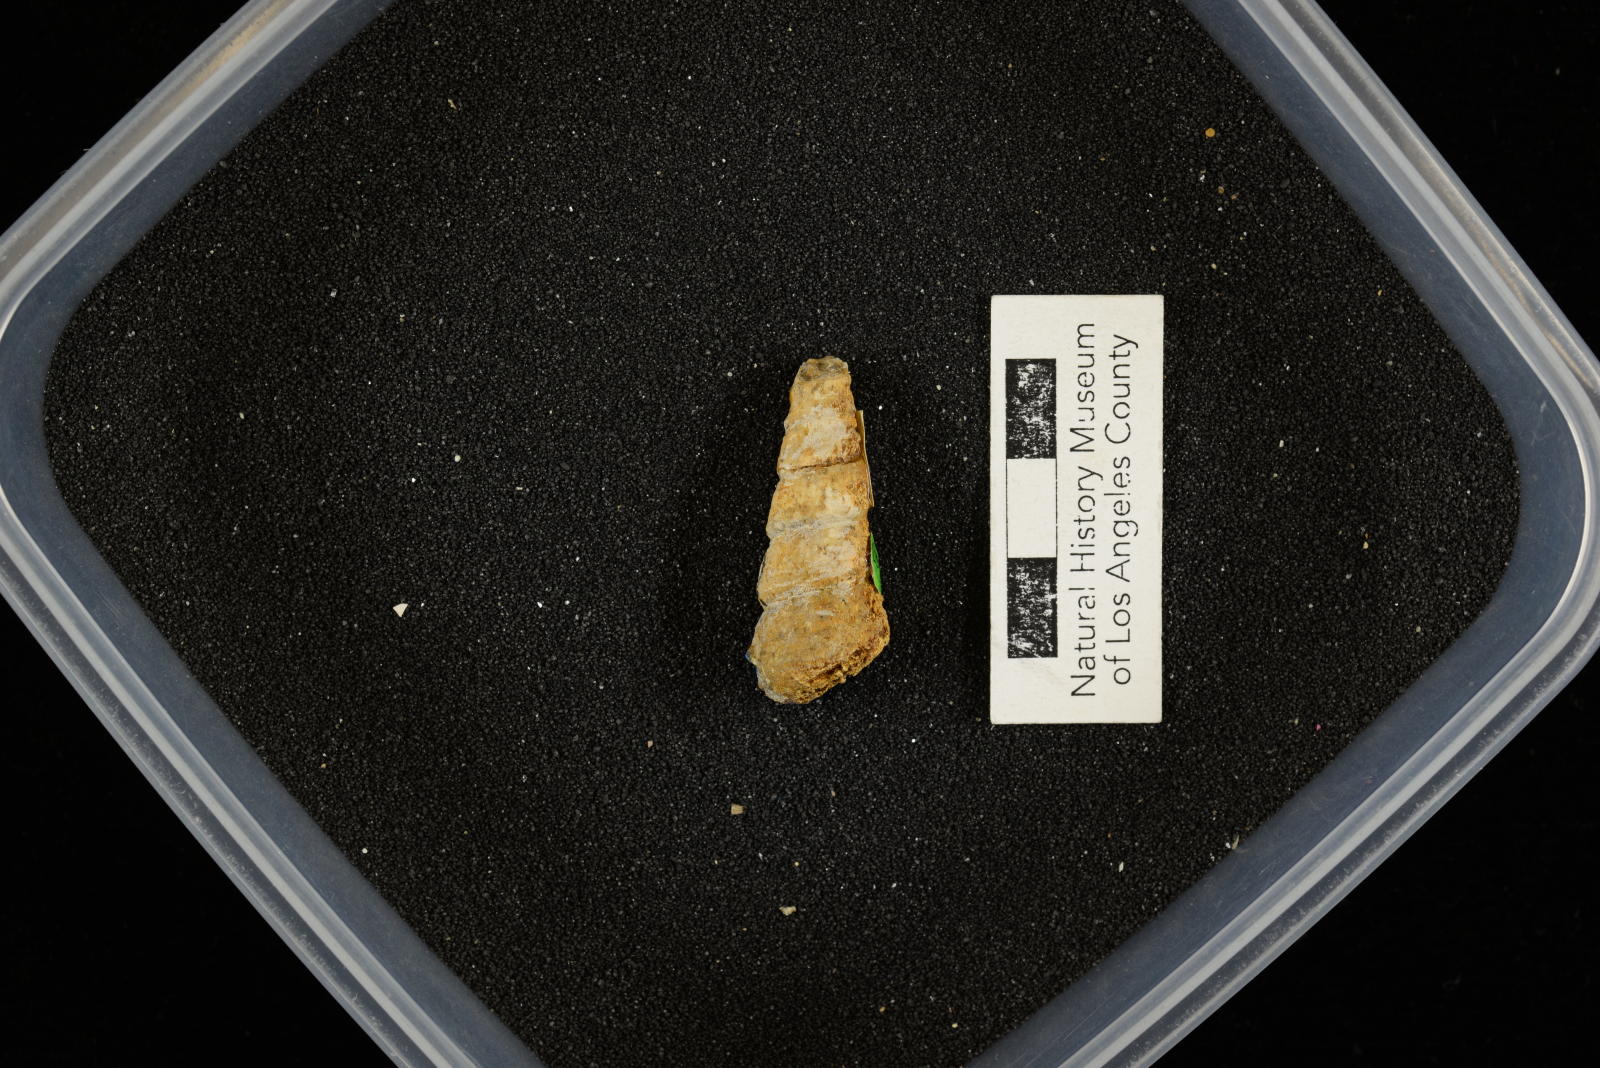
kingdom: Animalia
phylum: Mollusca
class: Gastropoda
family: Turritellidae
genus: Turritella
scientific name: Turritella peninsularis
